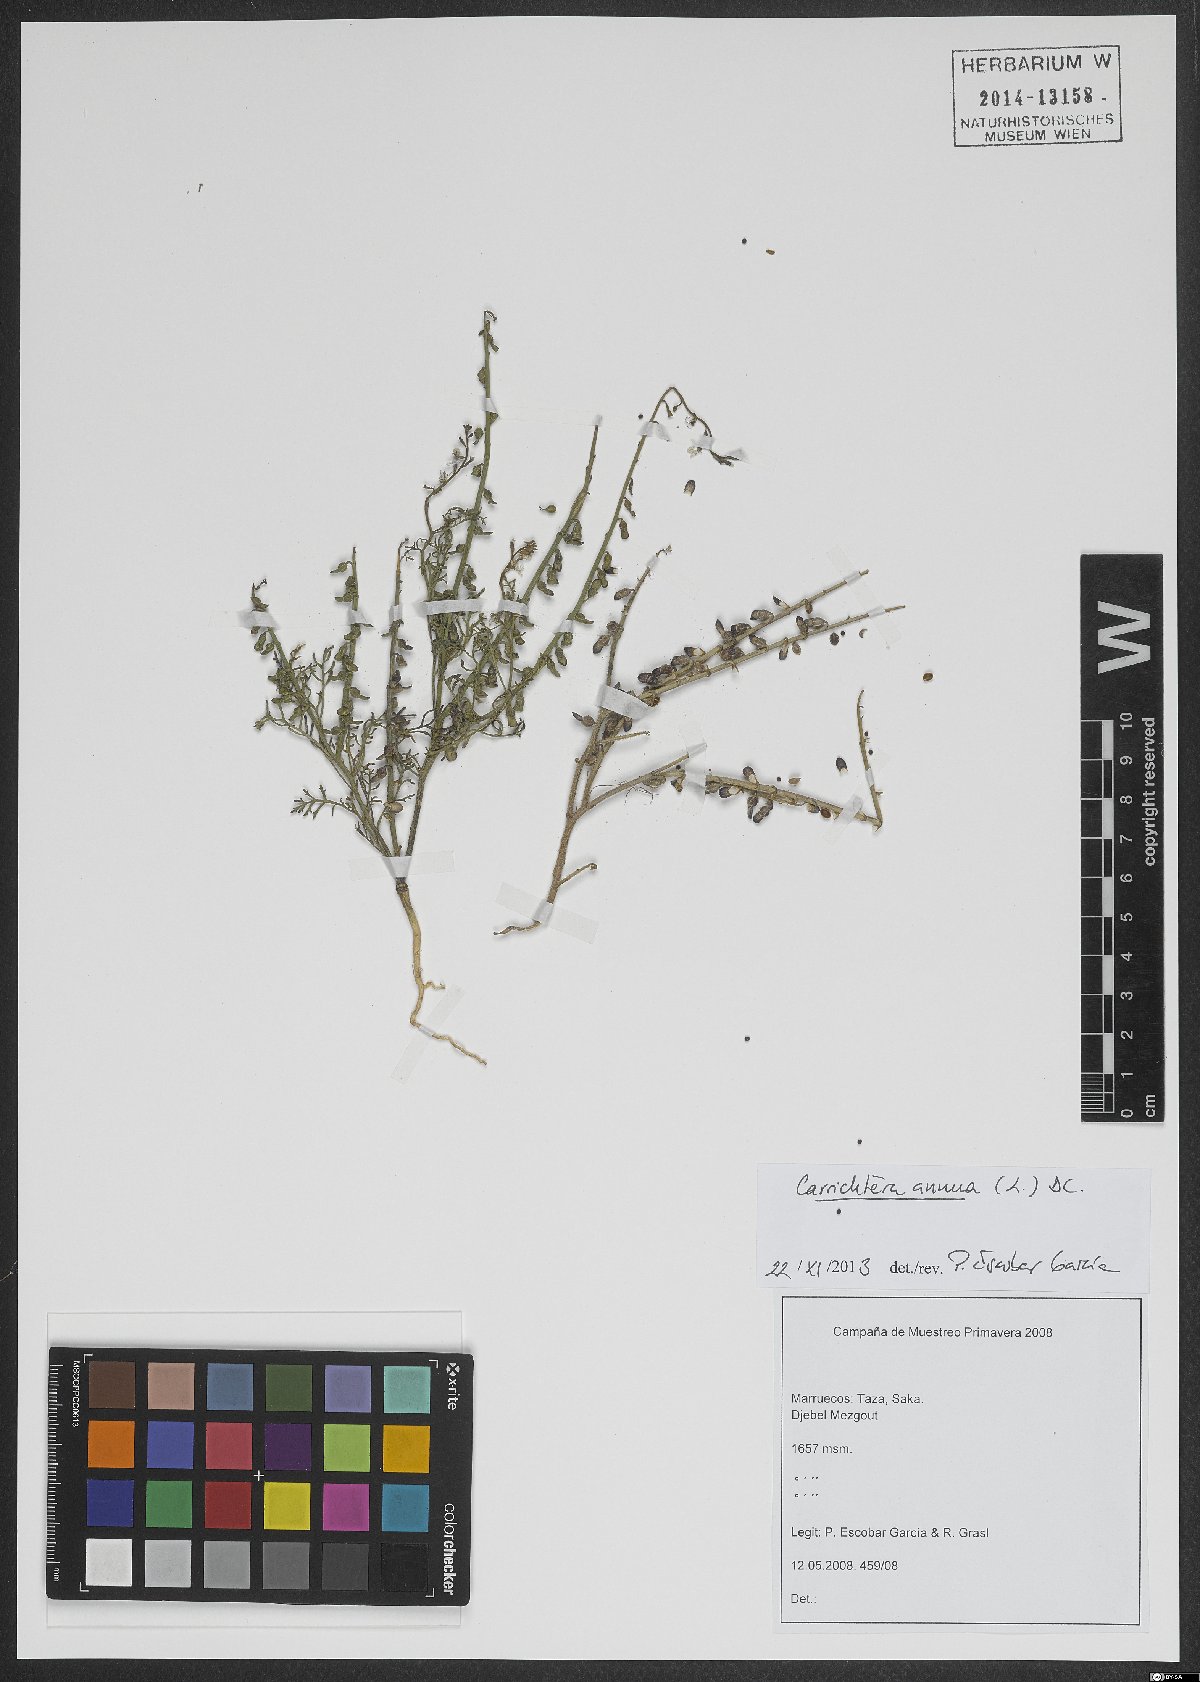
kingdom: Plantae
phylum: Tracheophyta
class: Magnoliopsida
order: Brassicales
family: Brassicaceae
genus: Carrichtera
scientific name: Carrichtera annua
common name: Cress rocket
